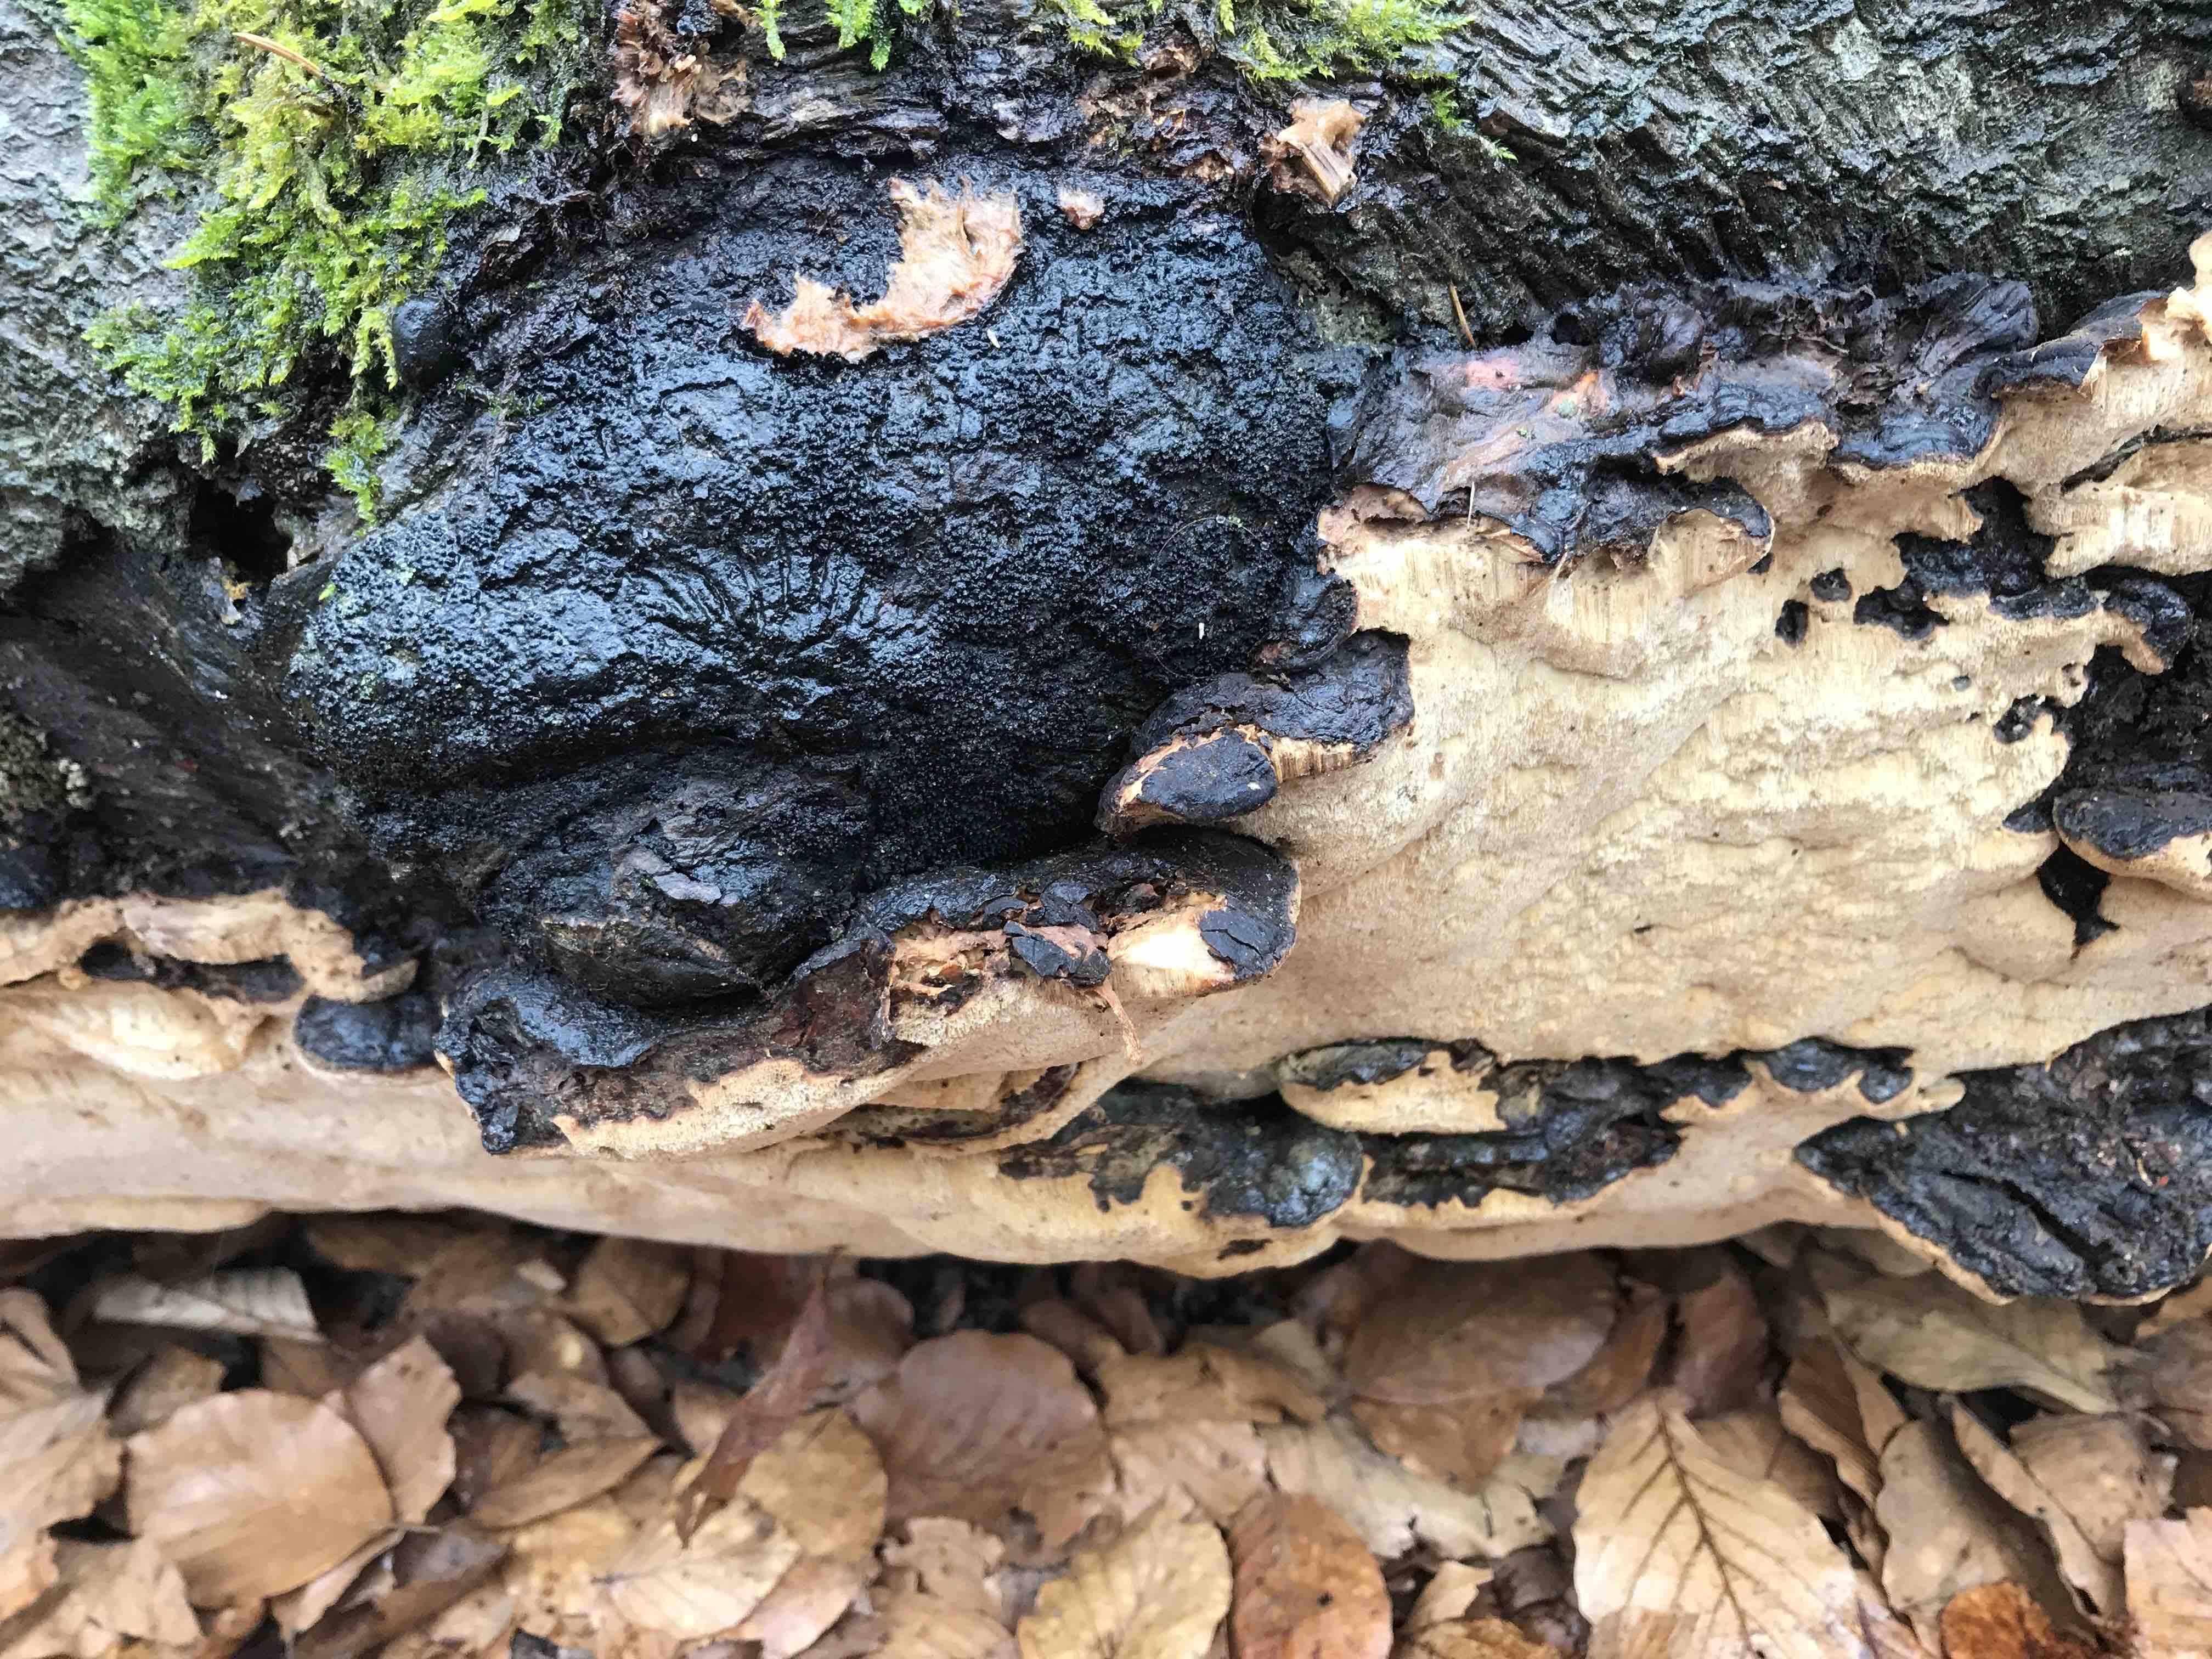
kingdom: Fungi
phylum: Basidiomycota
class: Agaricomycetes
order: Polyporales
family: Ischnodermataceae
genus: Ischnoderma
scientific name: Ischnoderma resinosum
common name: løv-tjæreporesvamp
